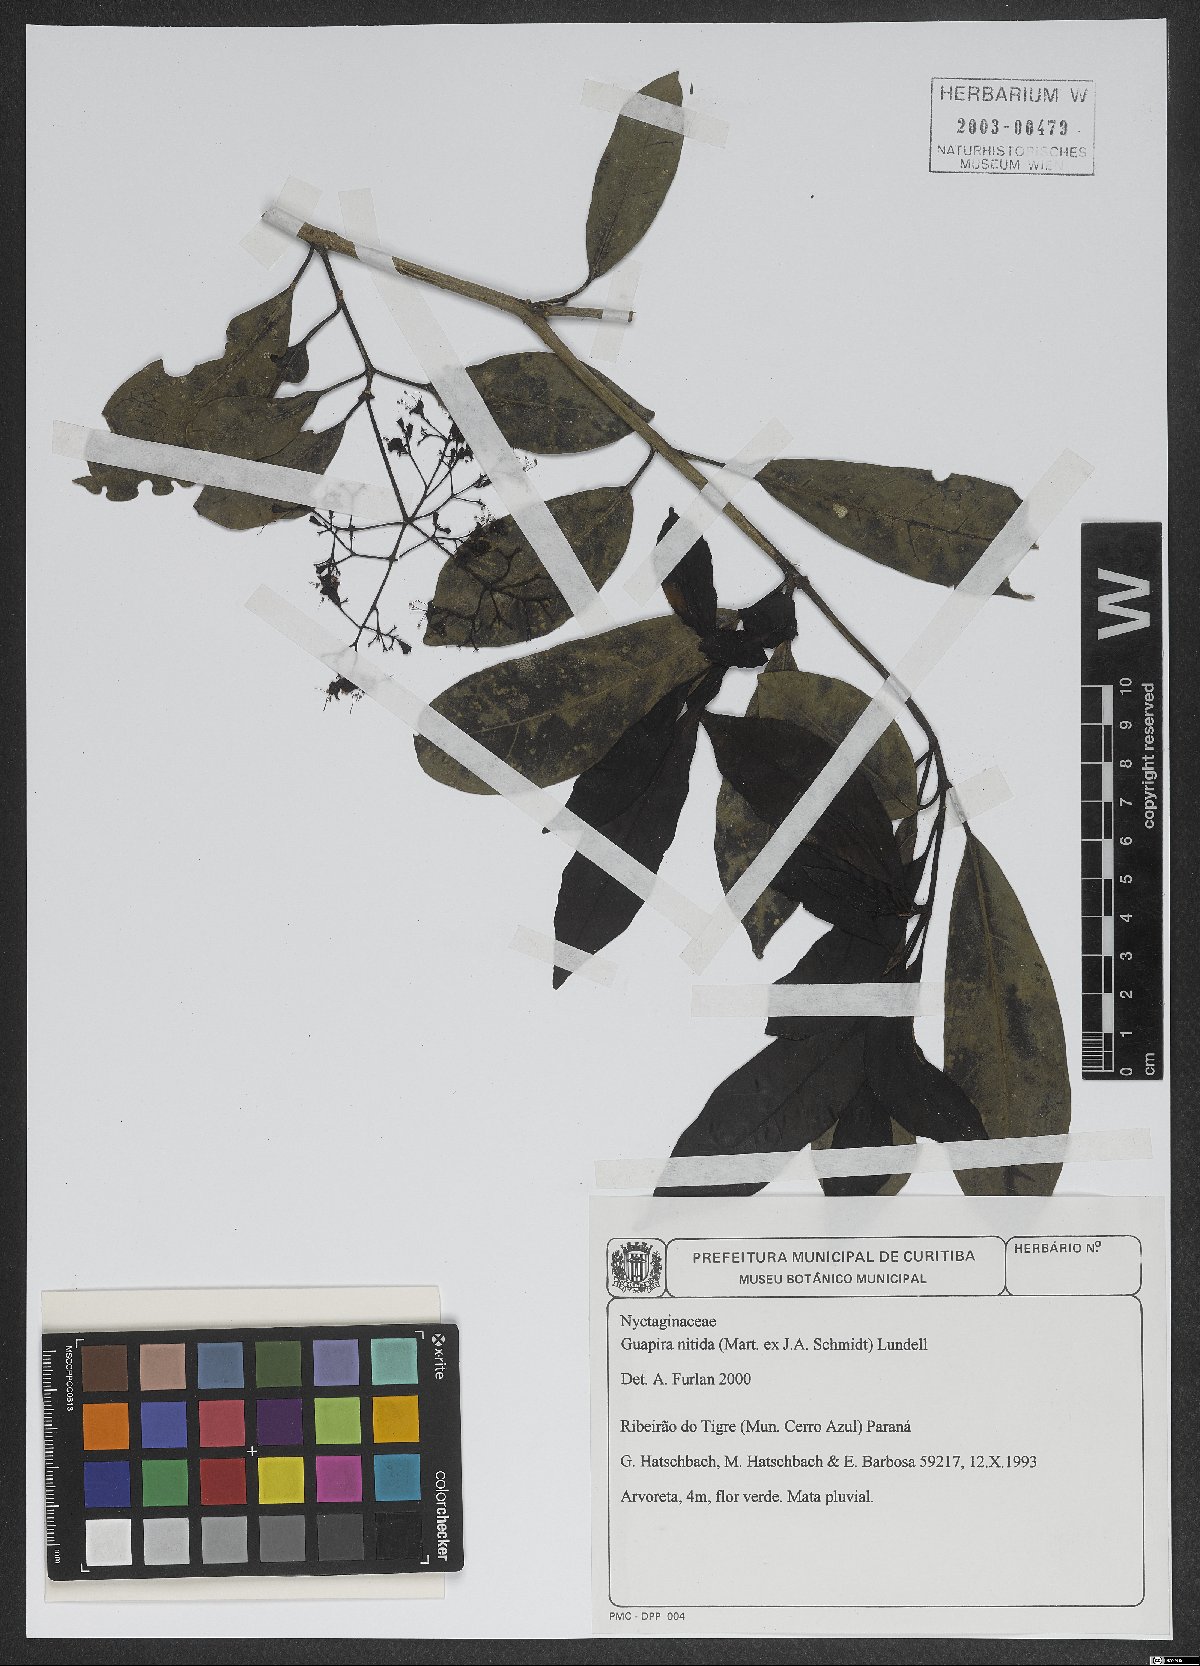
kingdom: Plantae
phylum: Tracheophyta
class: Magnoliopsida
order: Caryophyllales
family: Nyctaginaceae
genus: Guapira
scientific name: Guapira nitida
